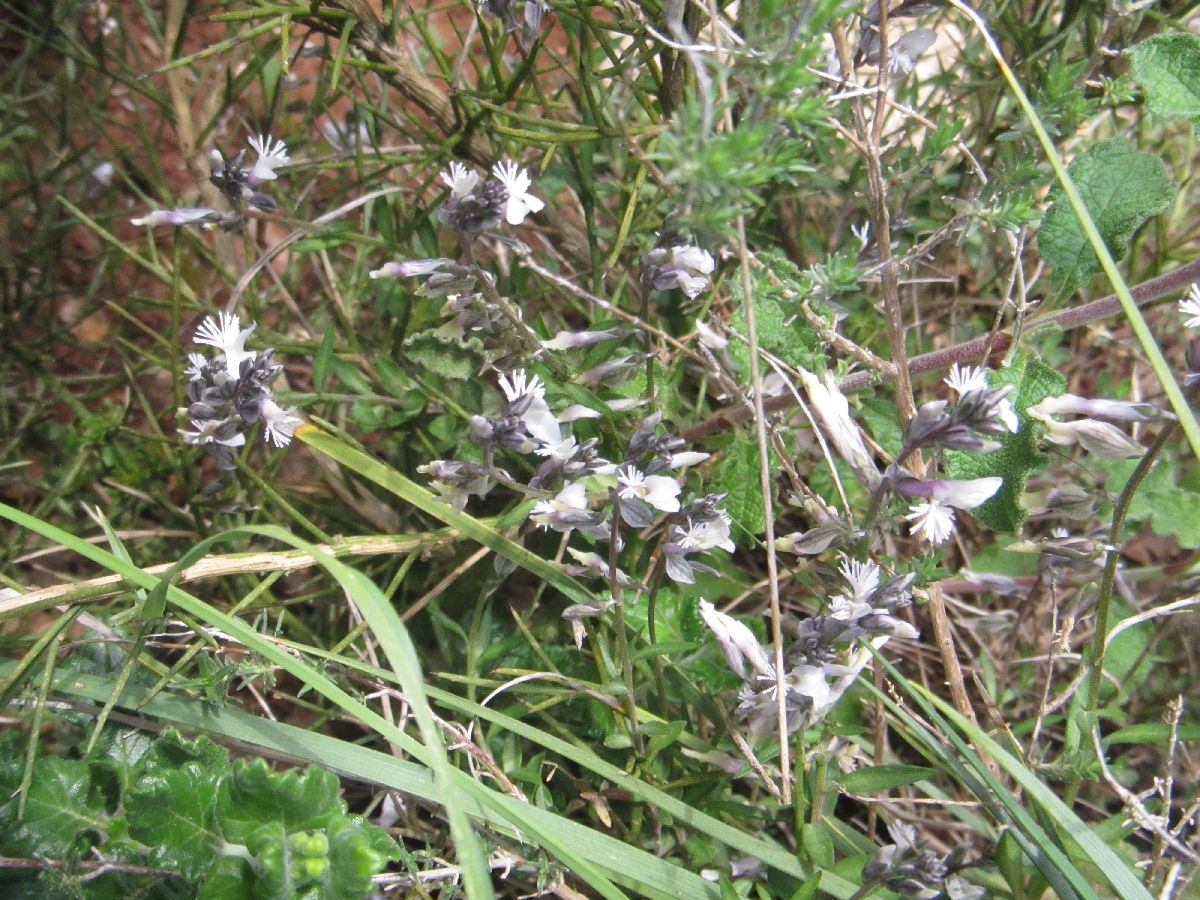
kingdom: Plantae
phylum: Tracheophyta
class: Magnoliopsida
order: Fabales
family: Polygalaceae
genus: Polygala
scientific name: Polygala venulosa
